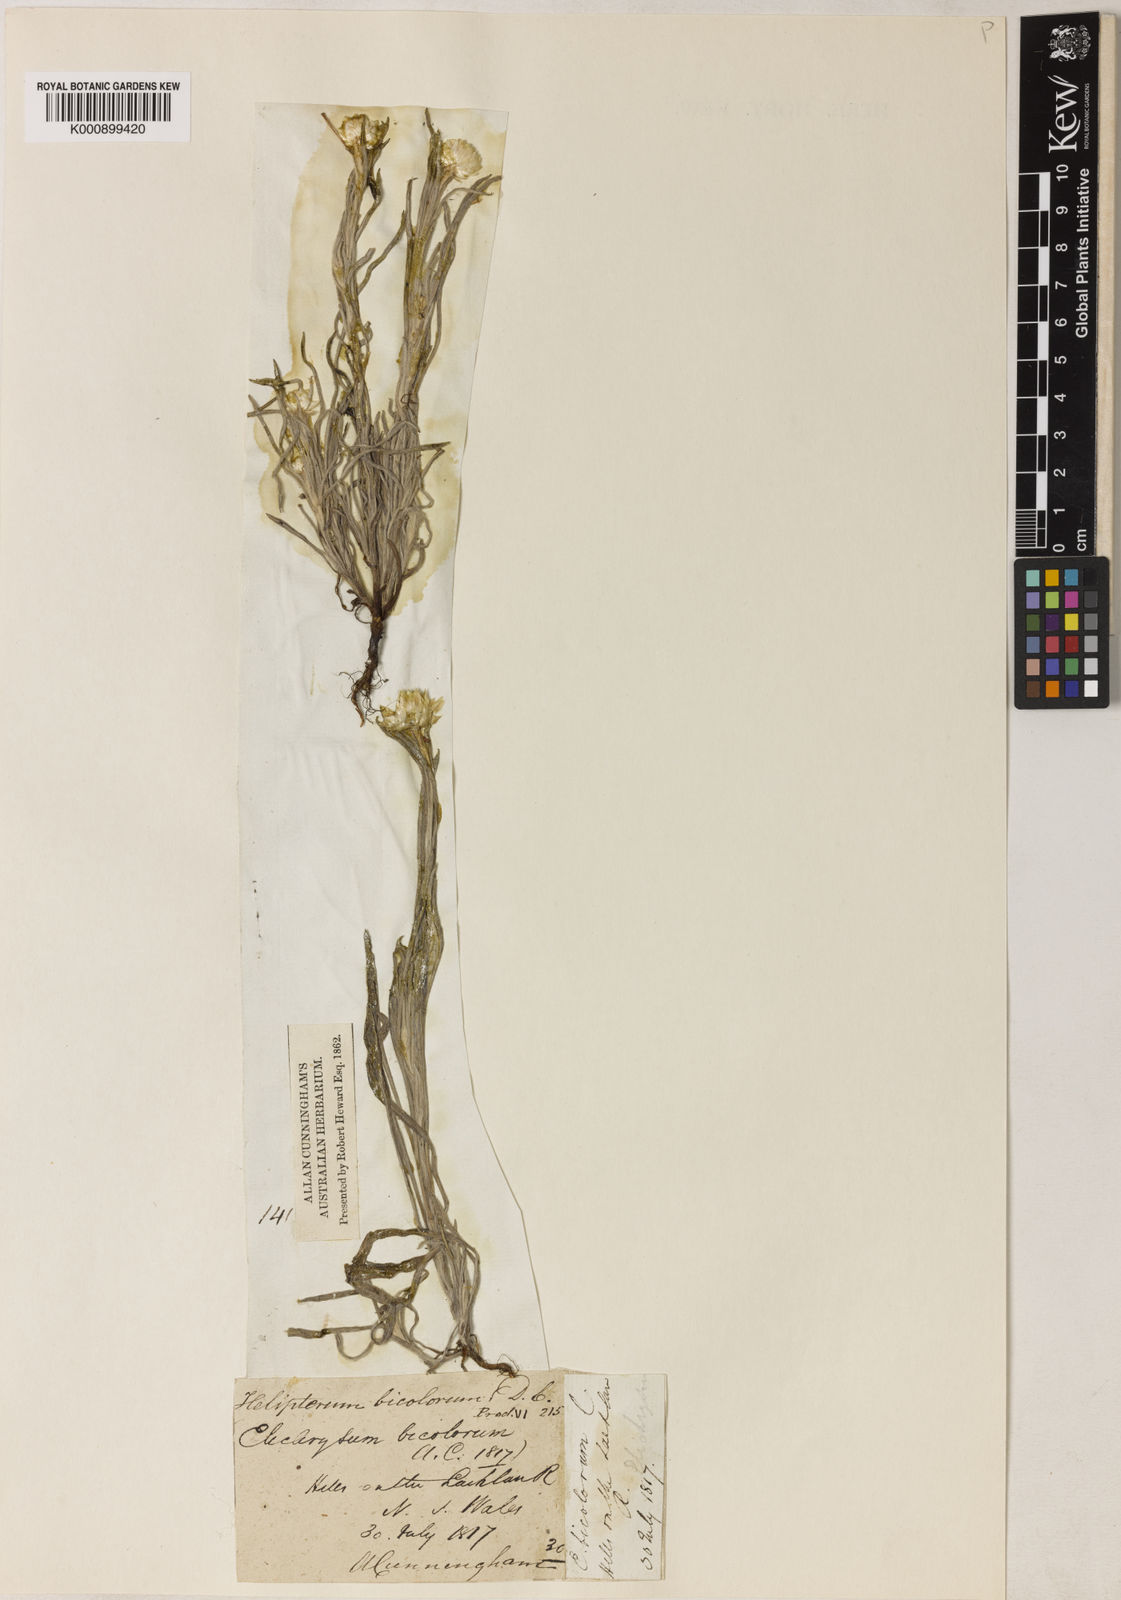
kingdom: Plantae
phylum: Tracheophyta
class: Magnoliopsida
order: Asterales
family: Asteraceae
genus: Leucochrysum
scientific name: Leucochrysum albicans
